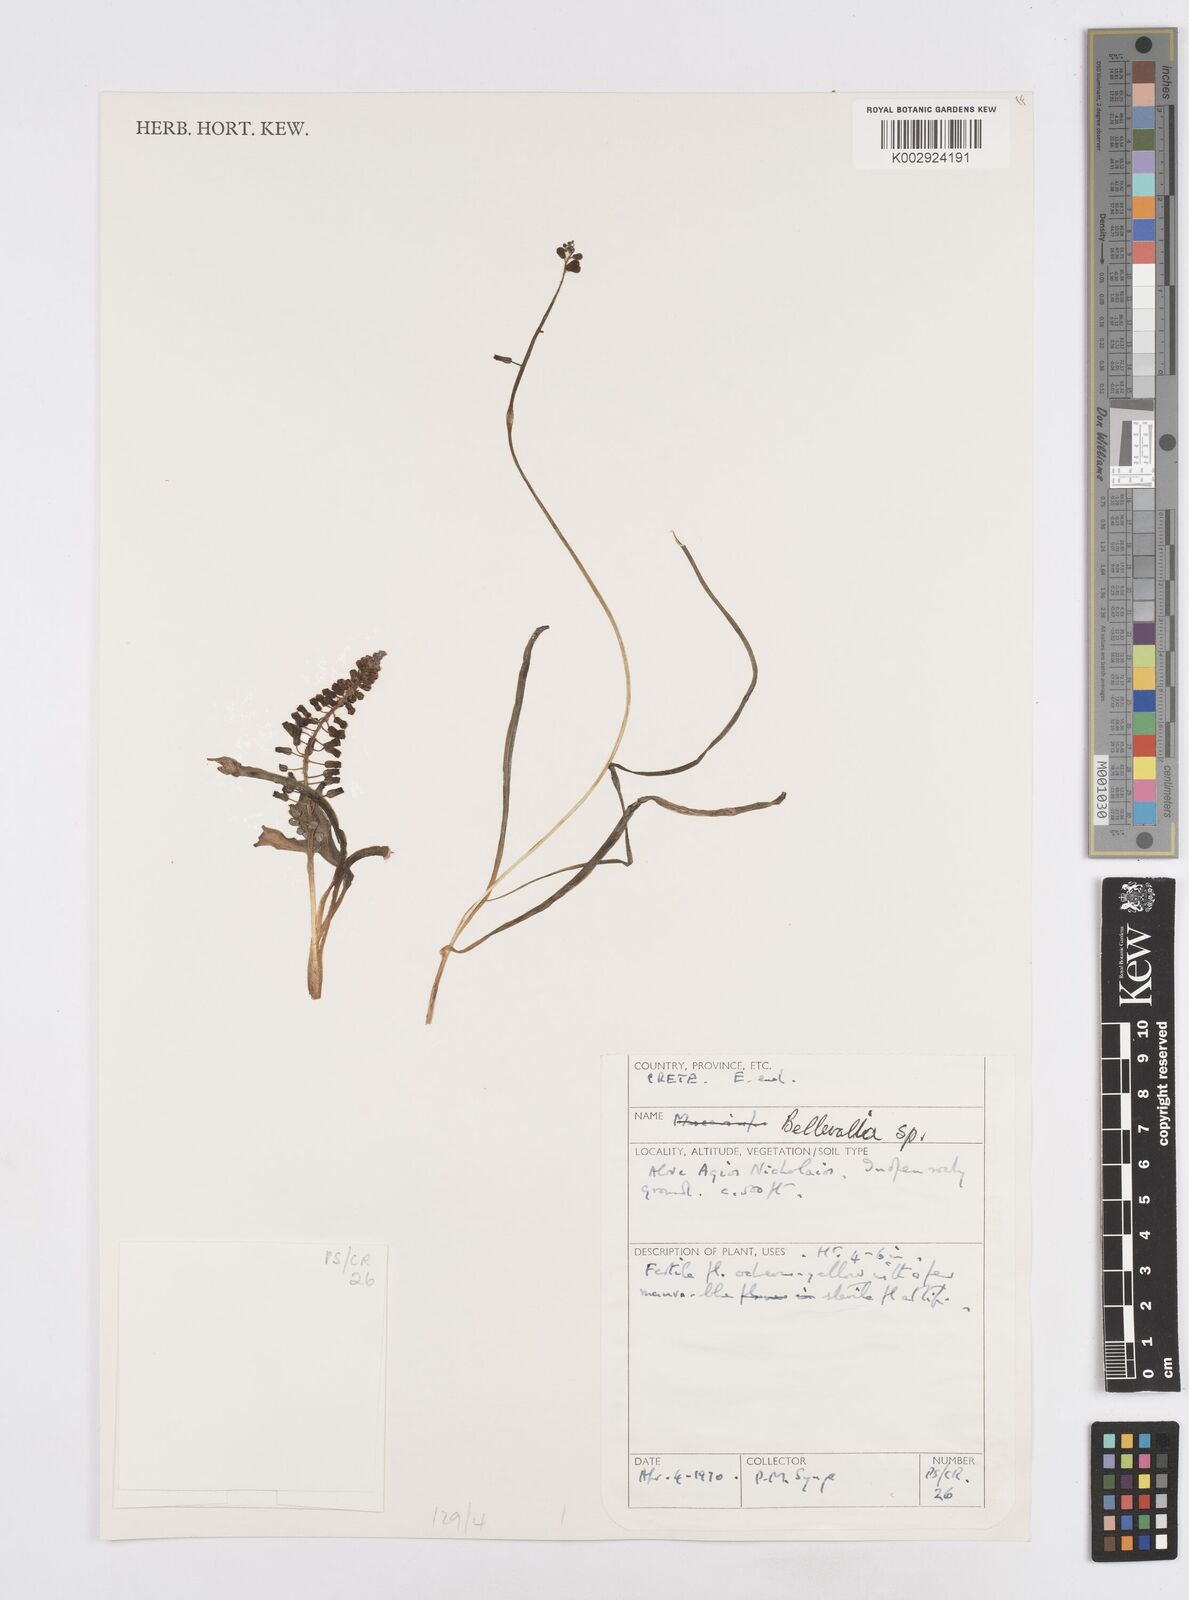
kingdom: Plantae
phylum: Tracheophyta
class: Liliopsida
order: Asparagales
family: Asparagaceae
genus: Bellevalia
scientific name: Bellevalia
